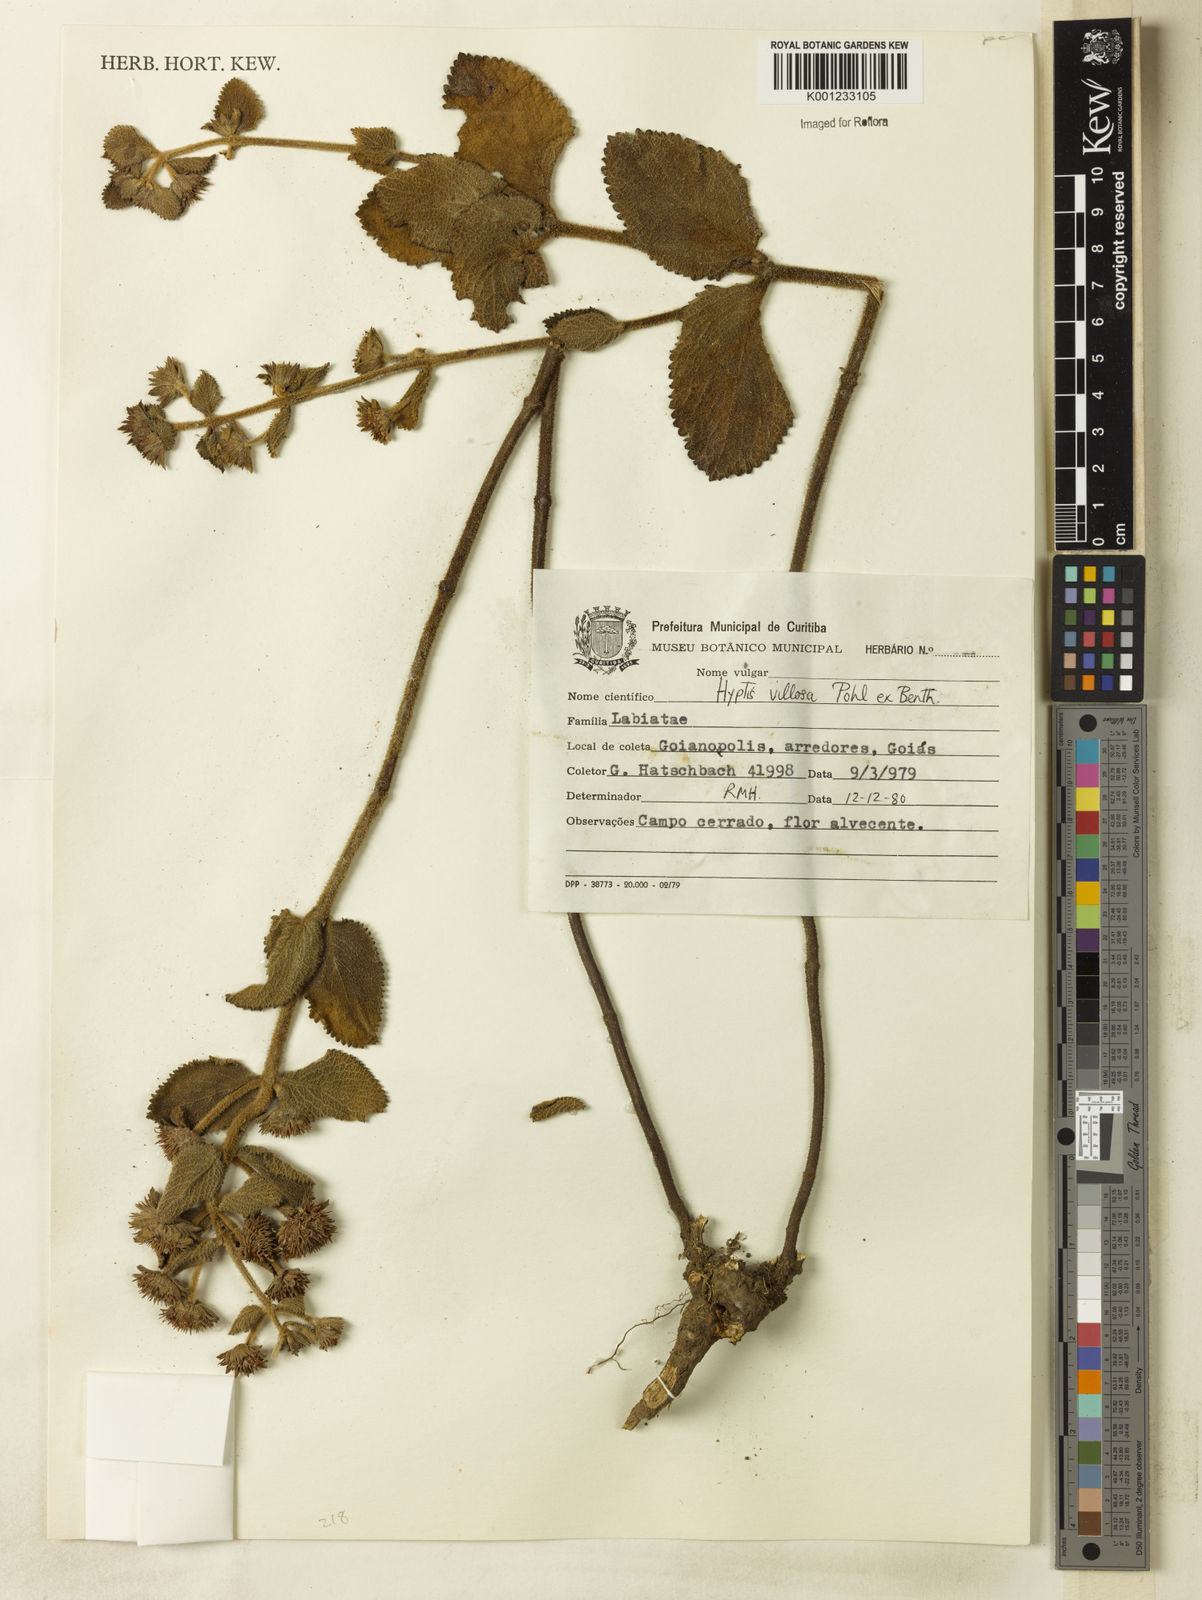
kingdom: Plantae
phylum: Tracheophyta
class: Magnoliopsida
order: Lamiales
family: Lamiaceae
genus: Hyptis
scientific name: Hyptis villosa
